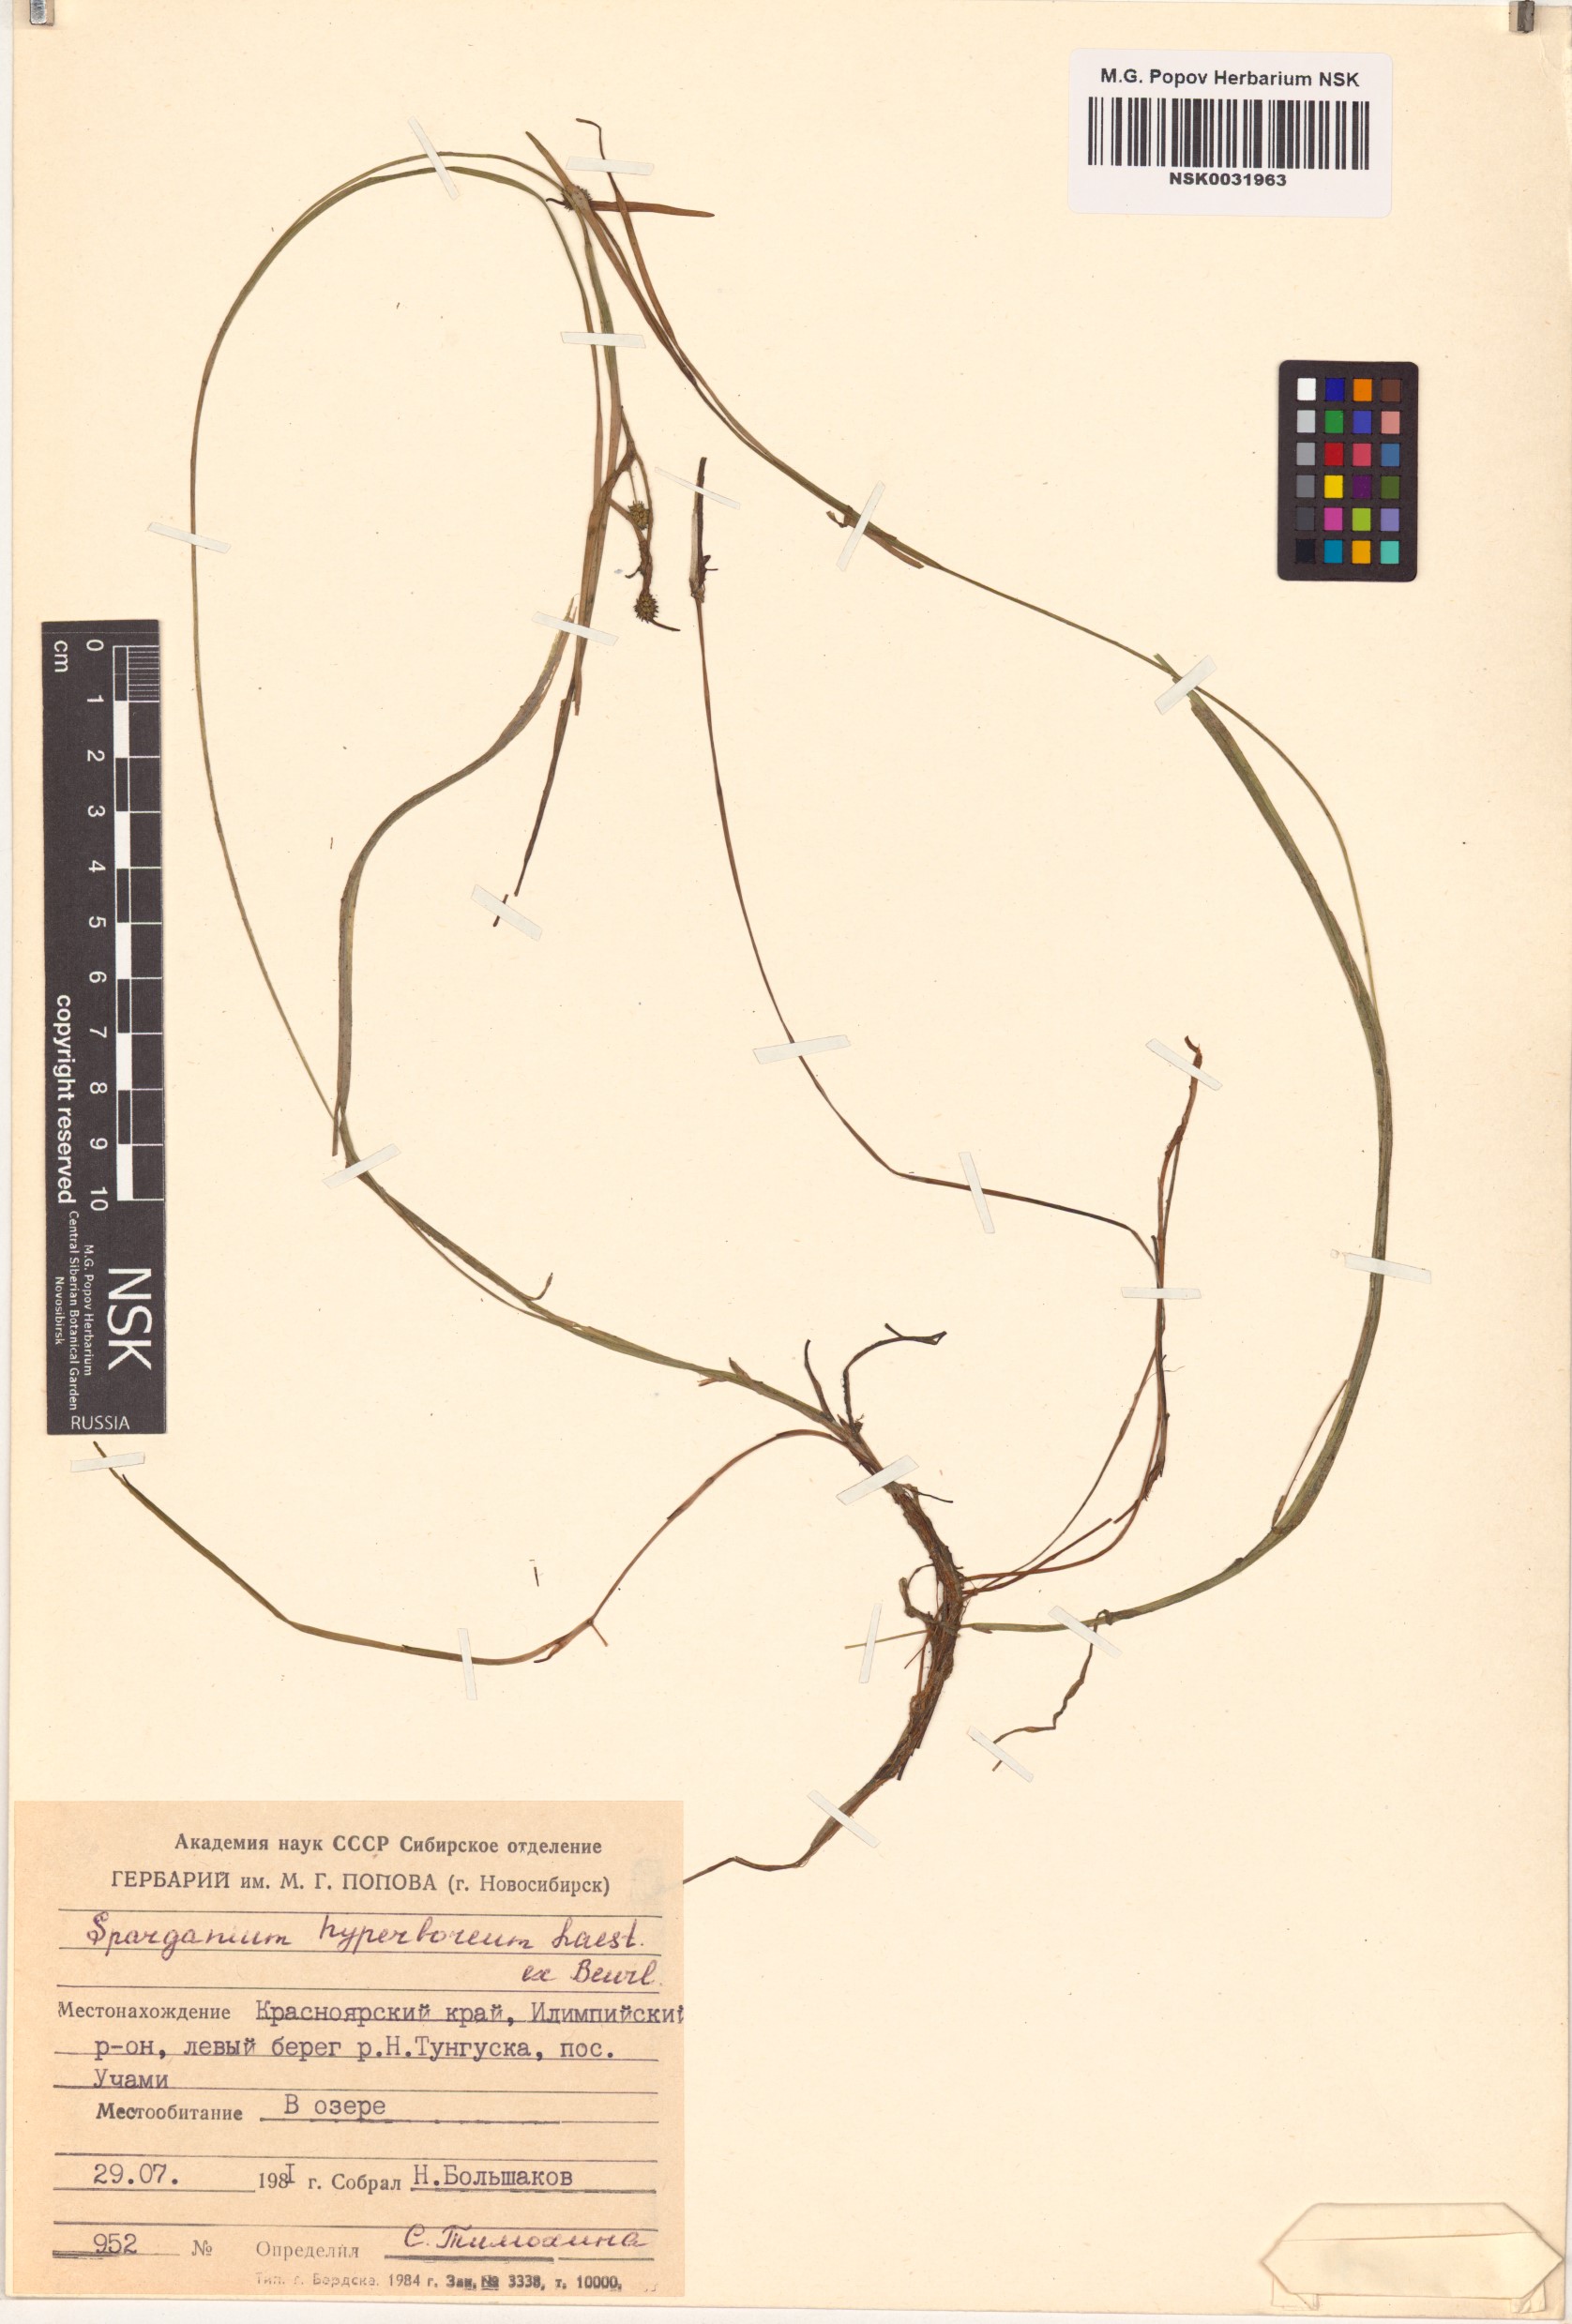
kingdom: Plantae
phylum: Tracheophyta
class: Liliopsida
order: Poales
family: Typhaceae
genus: Sparganium
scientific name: Sparganium hyperboreum
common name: Arctic burreed
